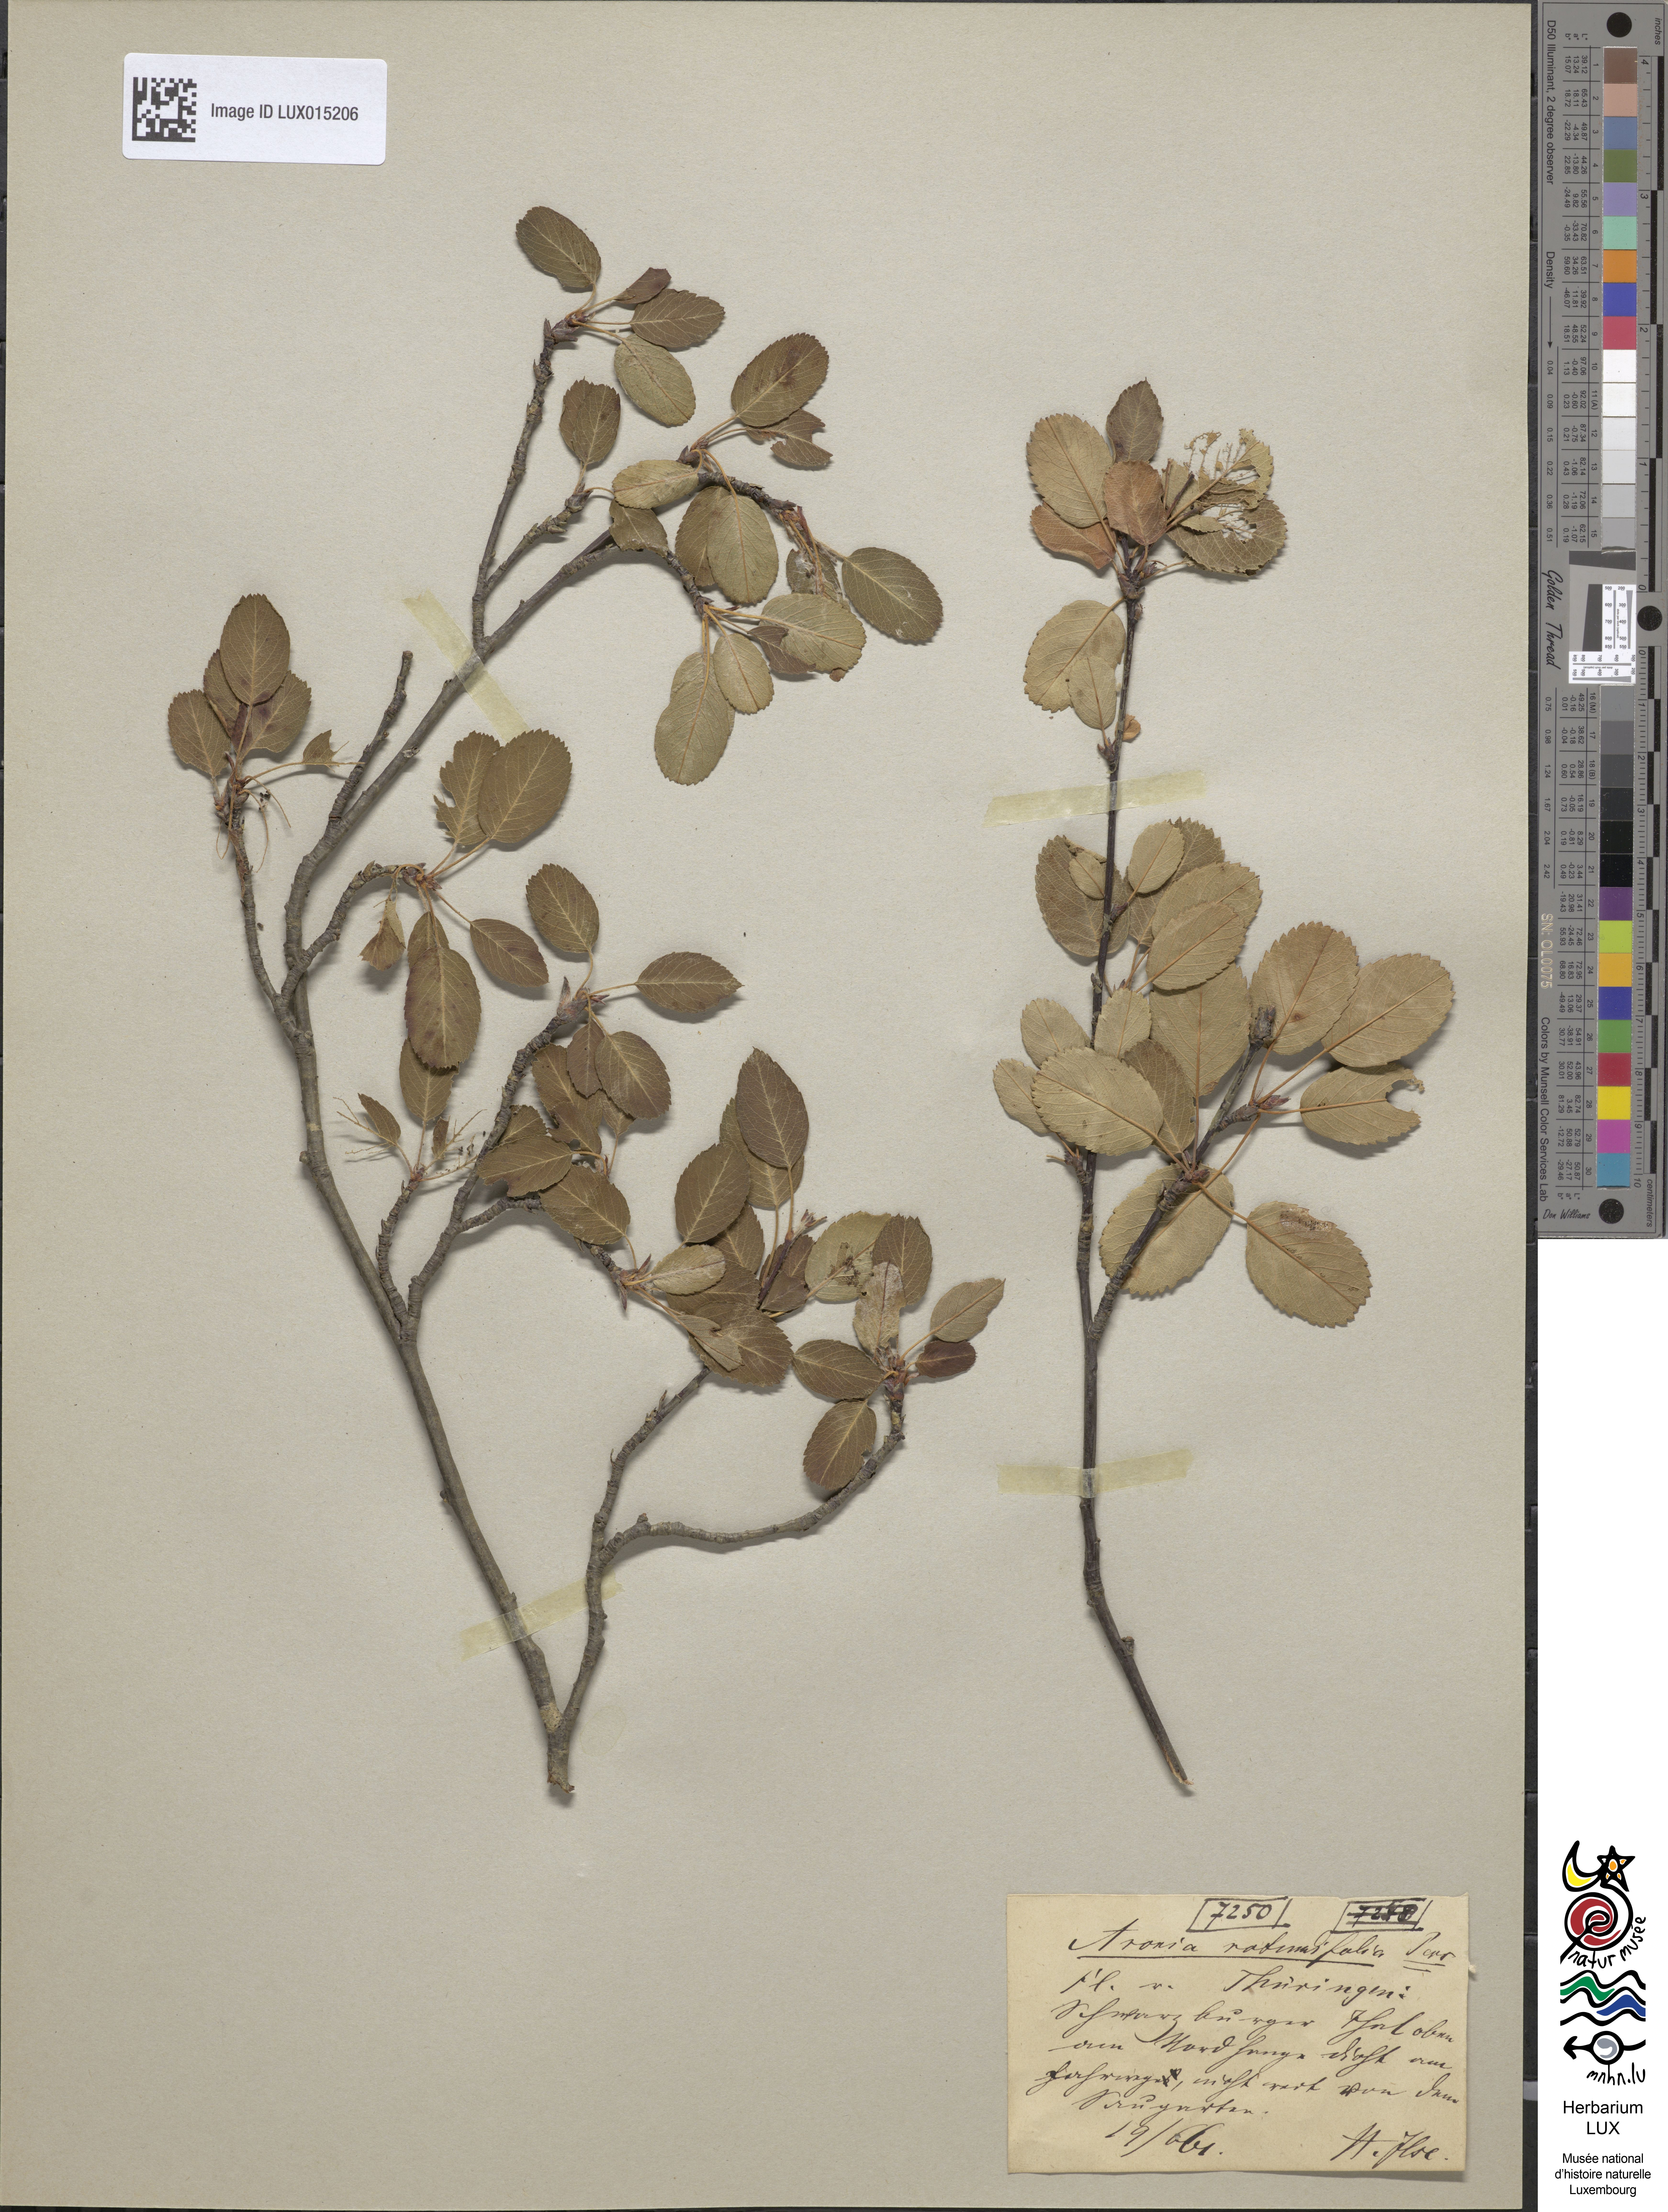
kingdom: Plantae
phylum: Tracheophyta
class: Magnoliopsida
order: Rosales
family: Rosaceae
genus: Amelanchier
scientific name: Amelanchier ovalis
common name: Serviceberry
